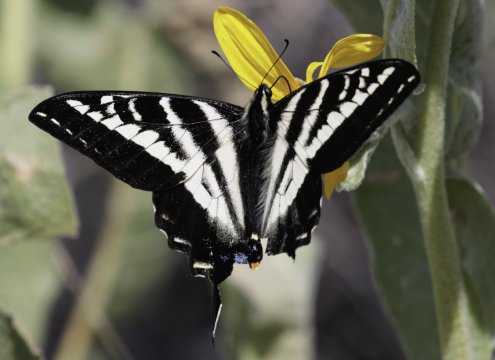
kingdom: Animalia
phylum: Arthropoda
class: Insecta
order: Lepidoptera
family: Papilionidae
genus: Pterourus
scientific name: Pterourus eurymedon
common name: Pale Swallowtail
